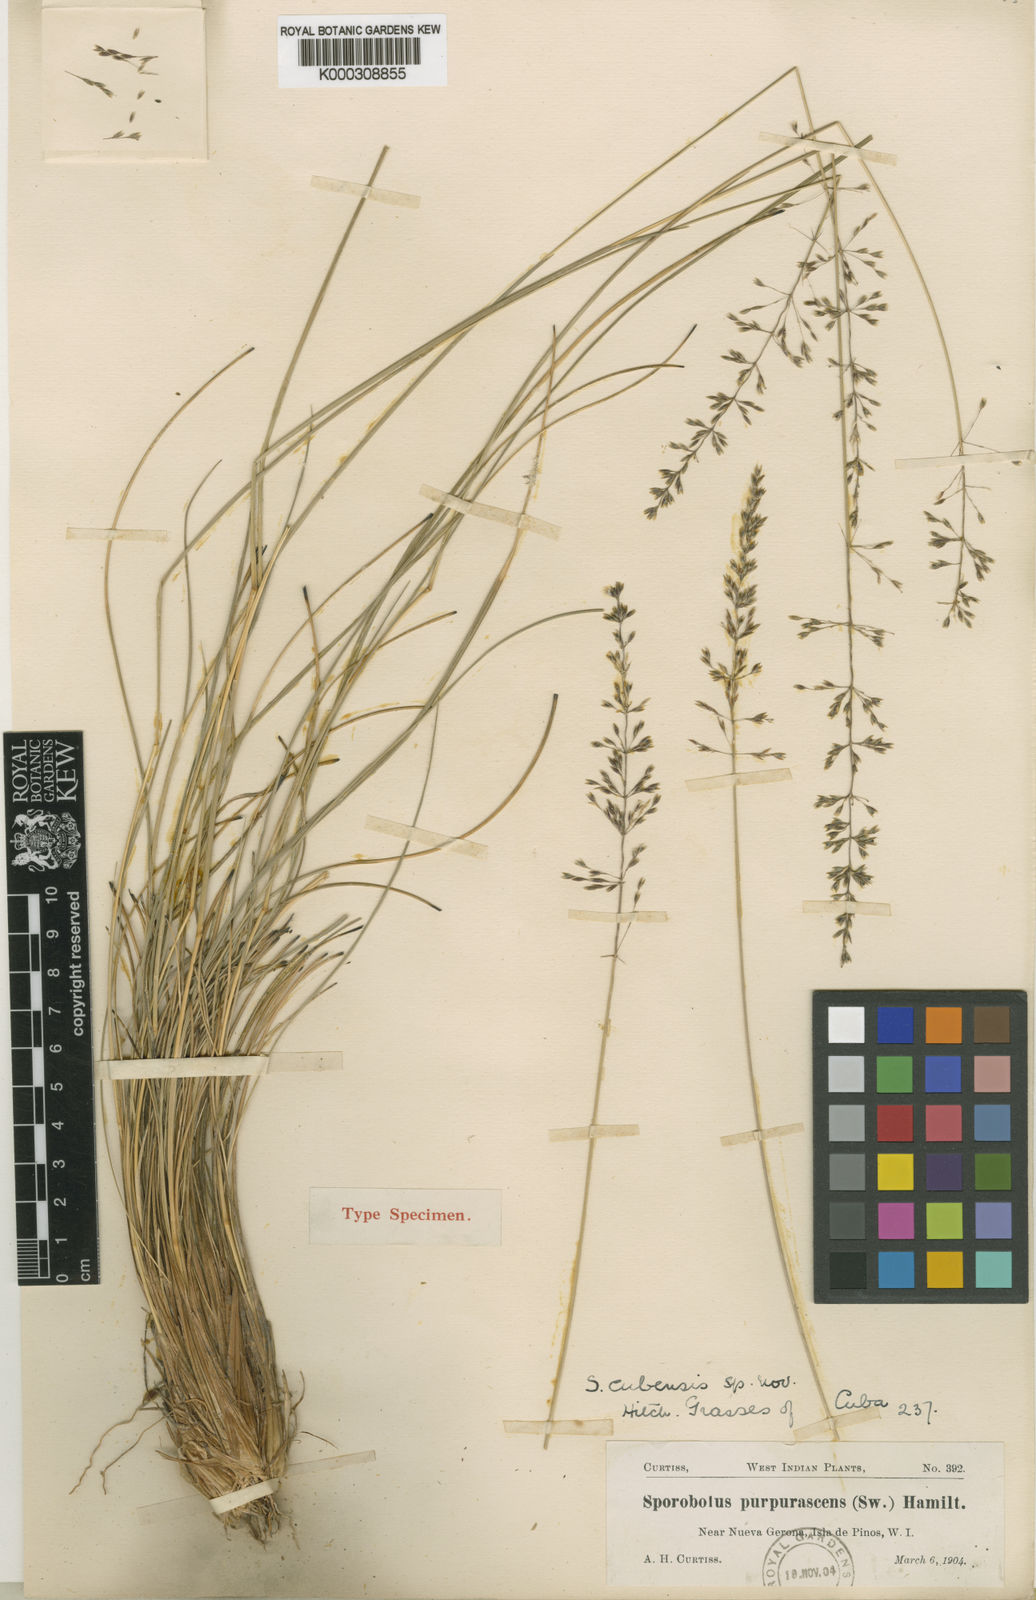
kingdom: Plantae
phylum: Tracheophyta
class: Liliopsida
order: Poales
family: Poaceae
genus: Sporobolus
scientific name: Sporobolus cubensis
